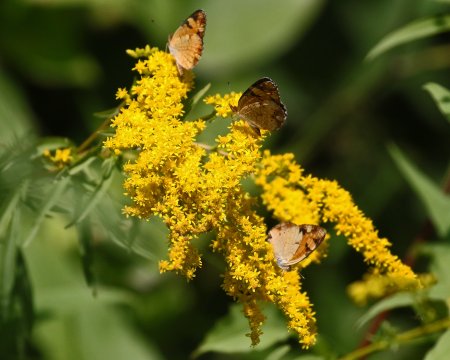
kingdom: Animalia
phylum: Arthropoda
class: Insecta
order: Lepidoptera
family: Nymphalidae
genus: Phyciodes
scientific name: Phyciodes tharos
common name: Pearl Crescent
